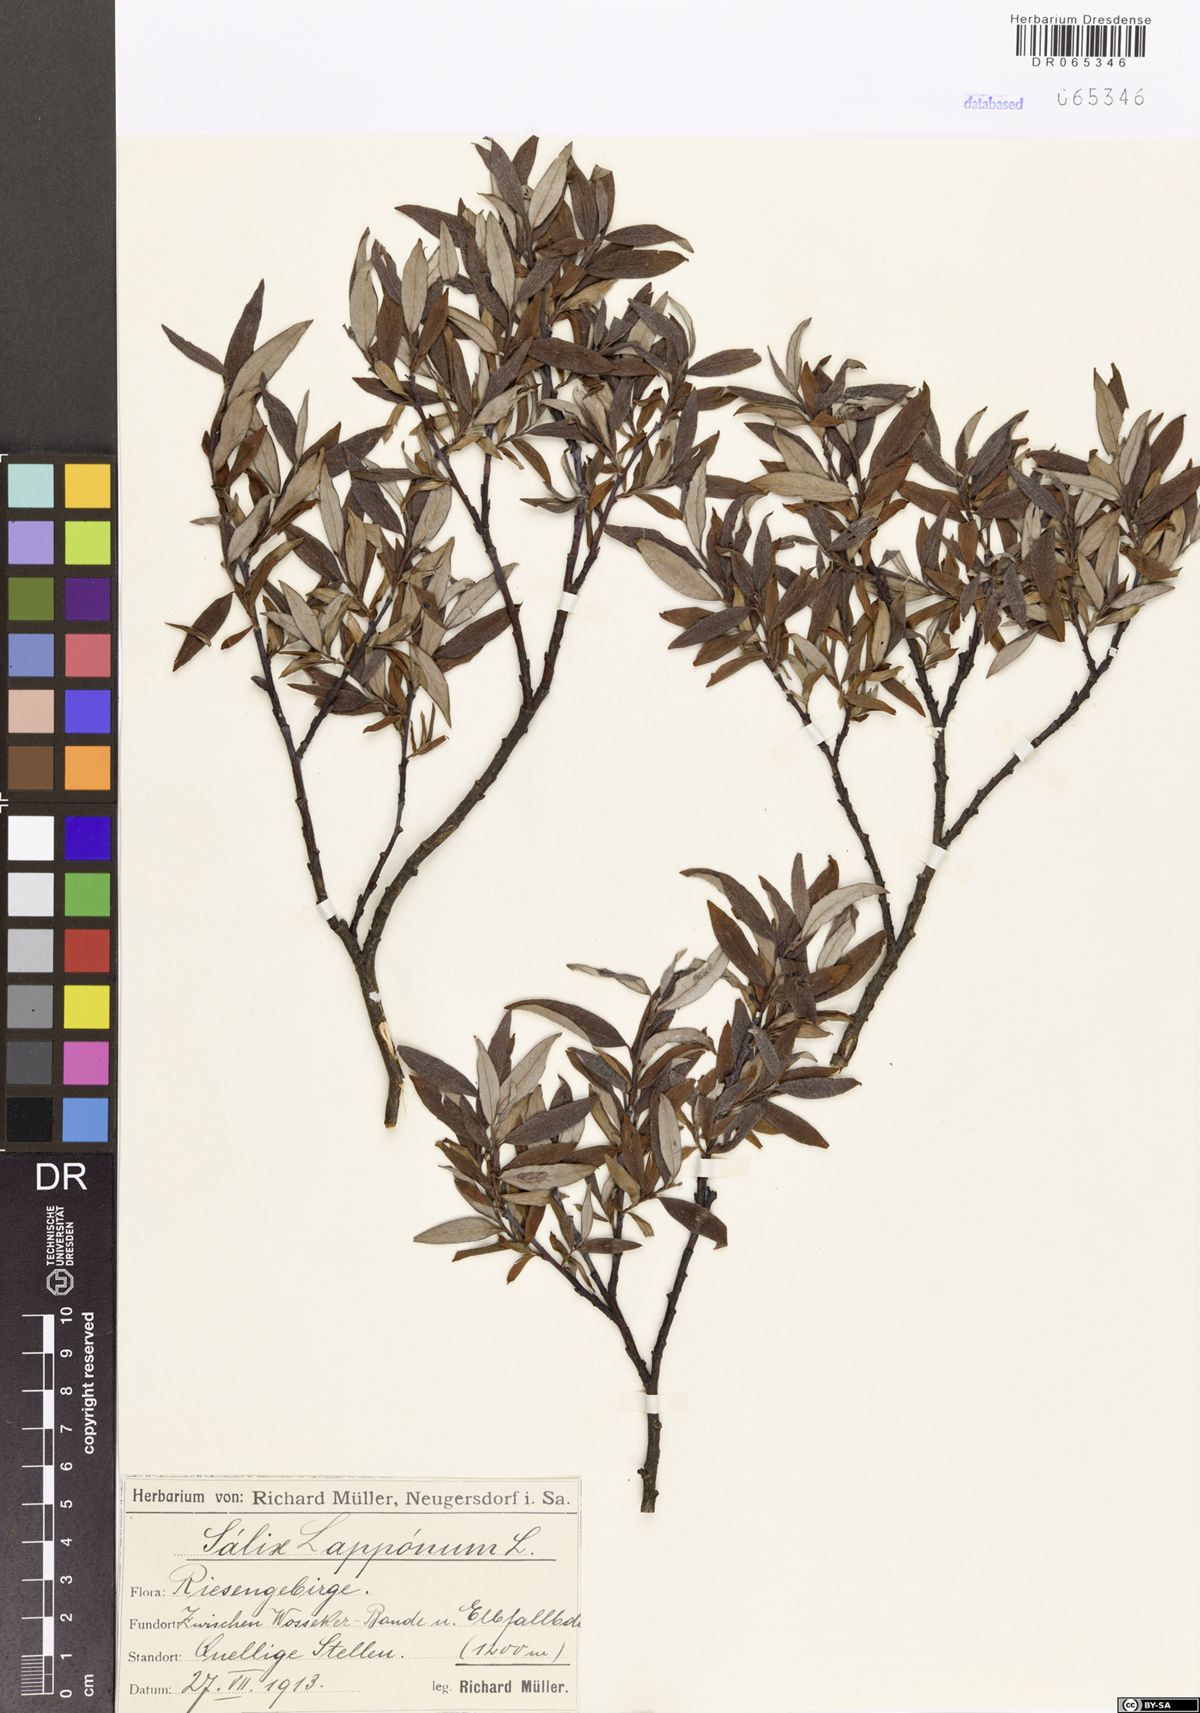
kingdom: Plantae
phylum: Tracheophyta
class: Magnoliopsida
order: Malpighiales
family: Salicaceae
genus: Salix
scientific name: Salix lapponum
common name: Downy willow
